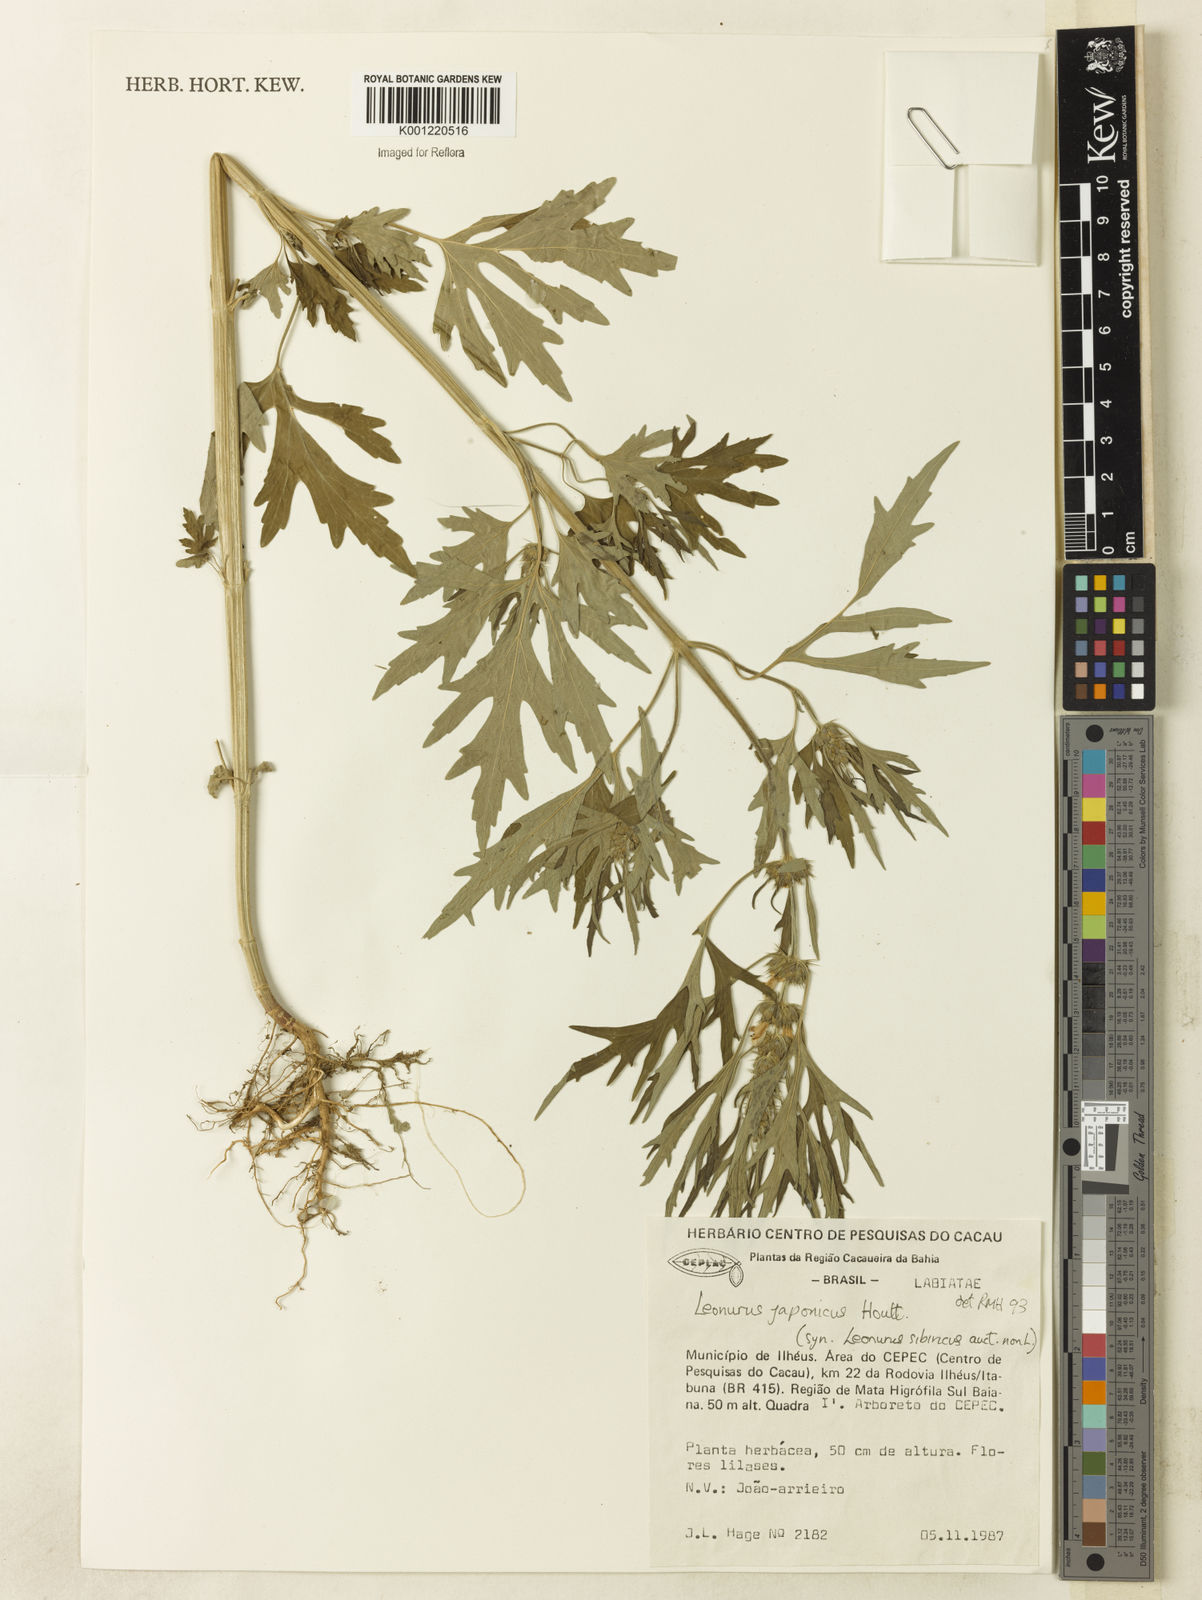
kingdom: Plantae
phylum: Tracheophyta
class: Magnoliopsida
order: Lamiales
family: Lamiaceae
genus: Leonurus
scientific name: Leonurus japonicus
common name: Honeyweed
